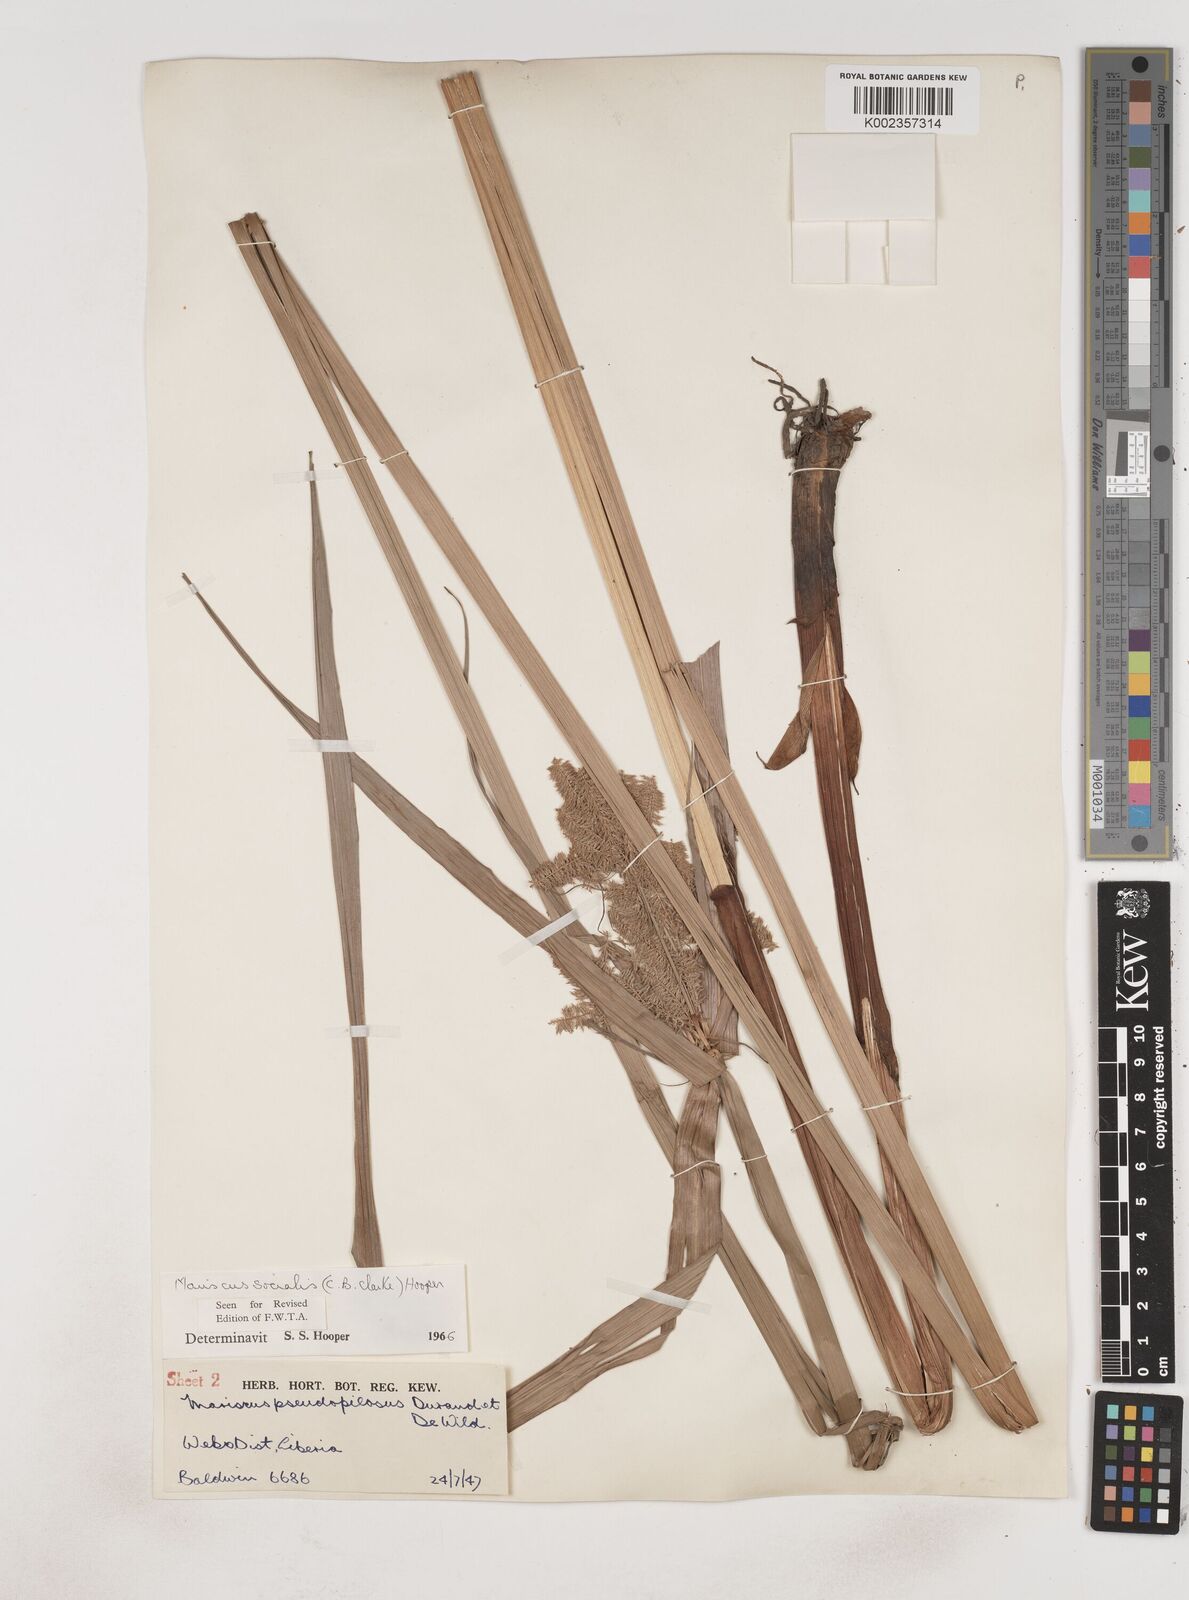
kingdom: Plantae
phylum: Tracheophyta
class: Liliopsida
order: Poales
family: Cyperaceae
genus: Cyperus
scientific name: Cyperus pseudopilosus
